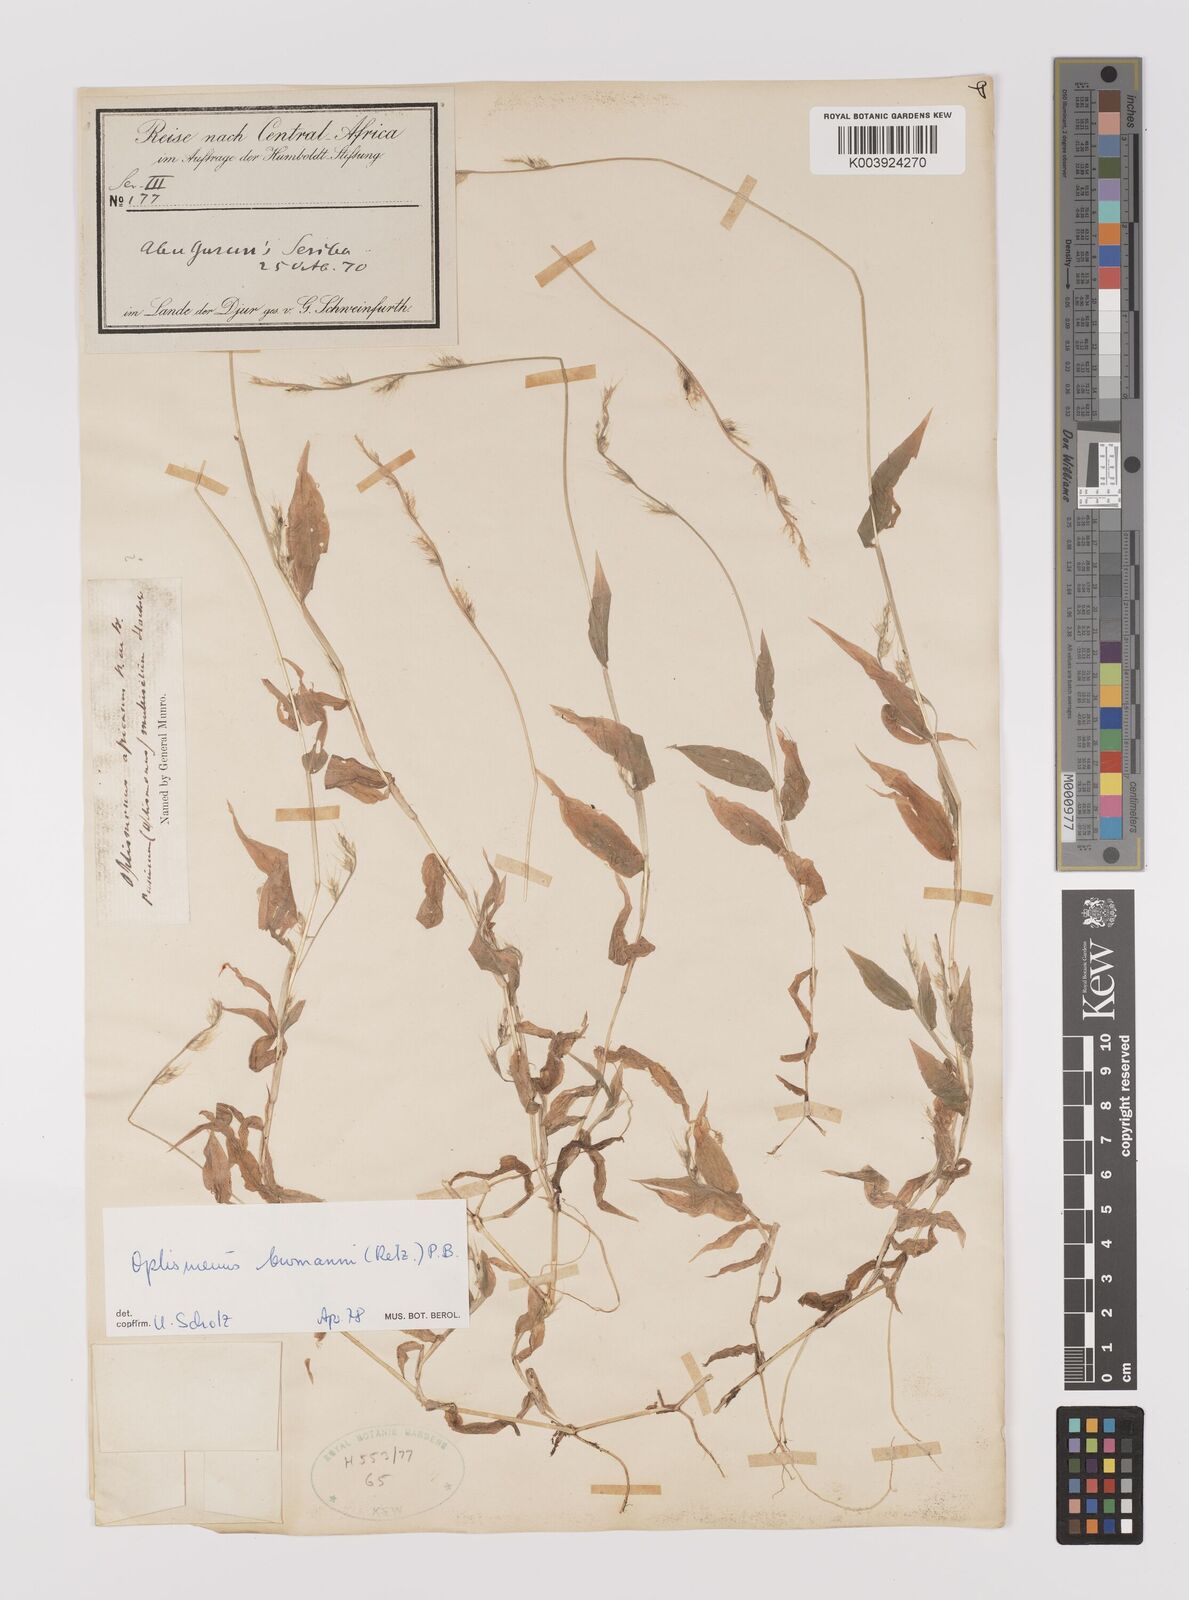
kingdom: Plantae
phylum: Tracheophyta
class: Liliopsida
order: Poales
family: Poaceae
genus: Oplismenus
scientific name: Oplismenus burmanni
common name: Burmann's basketgrass
